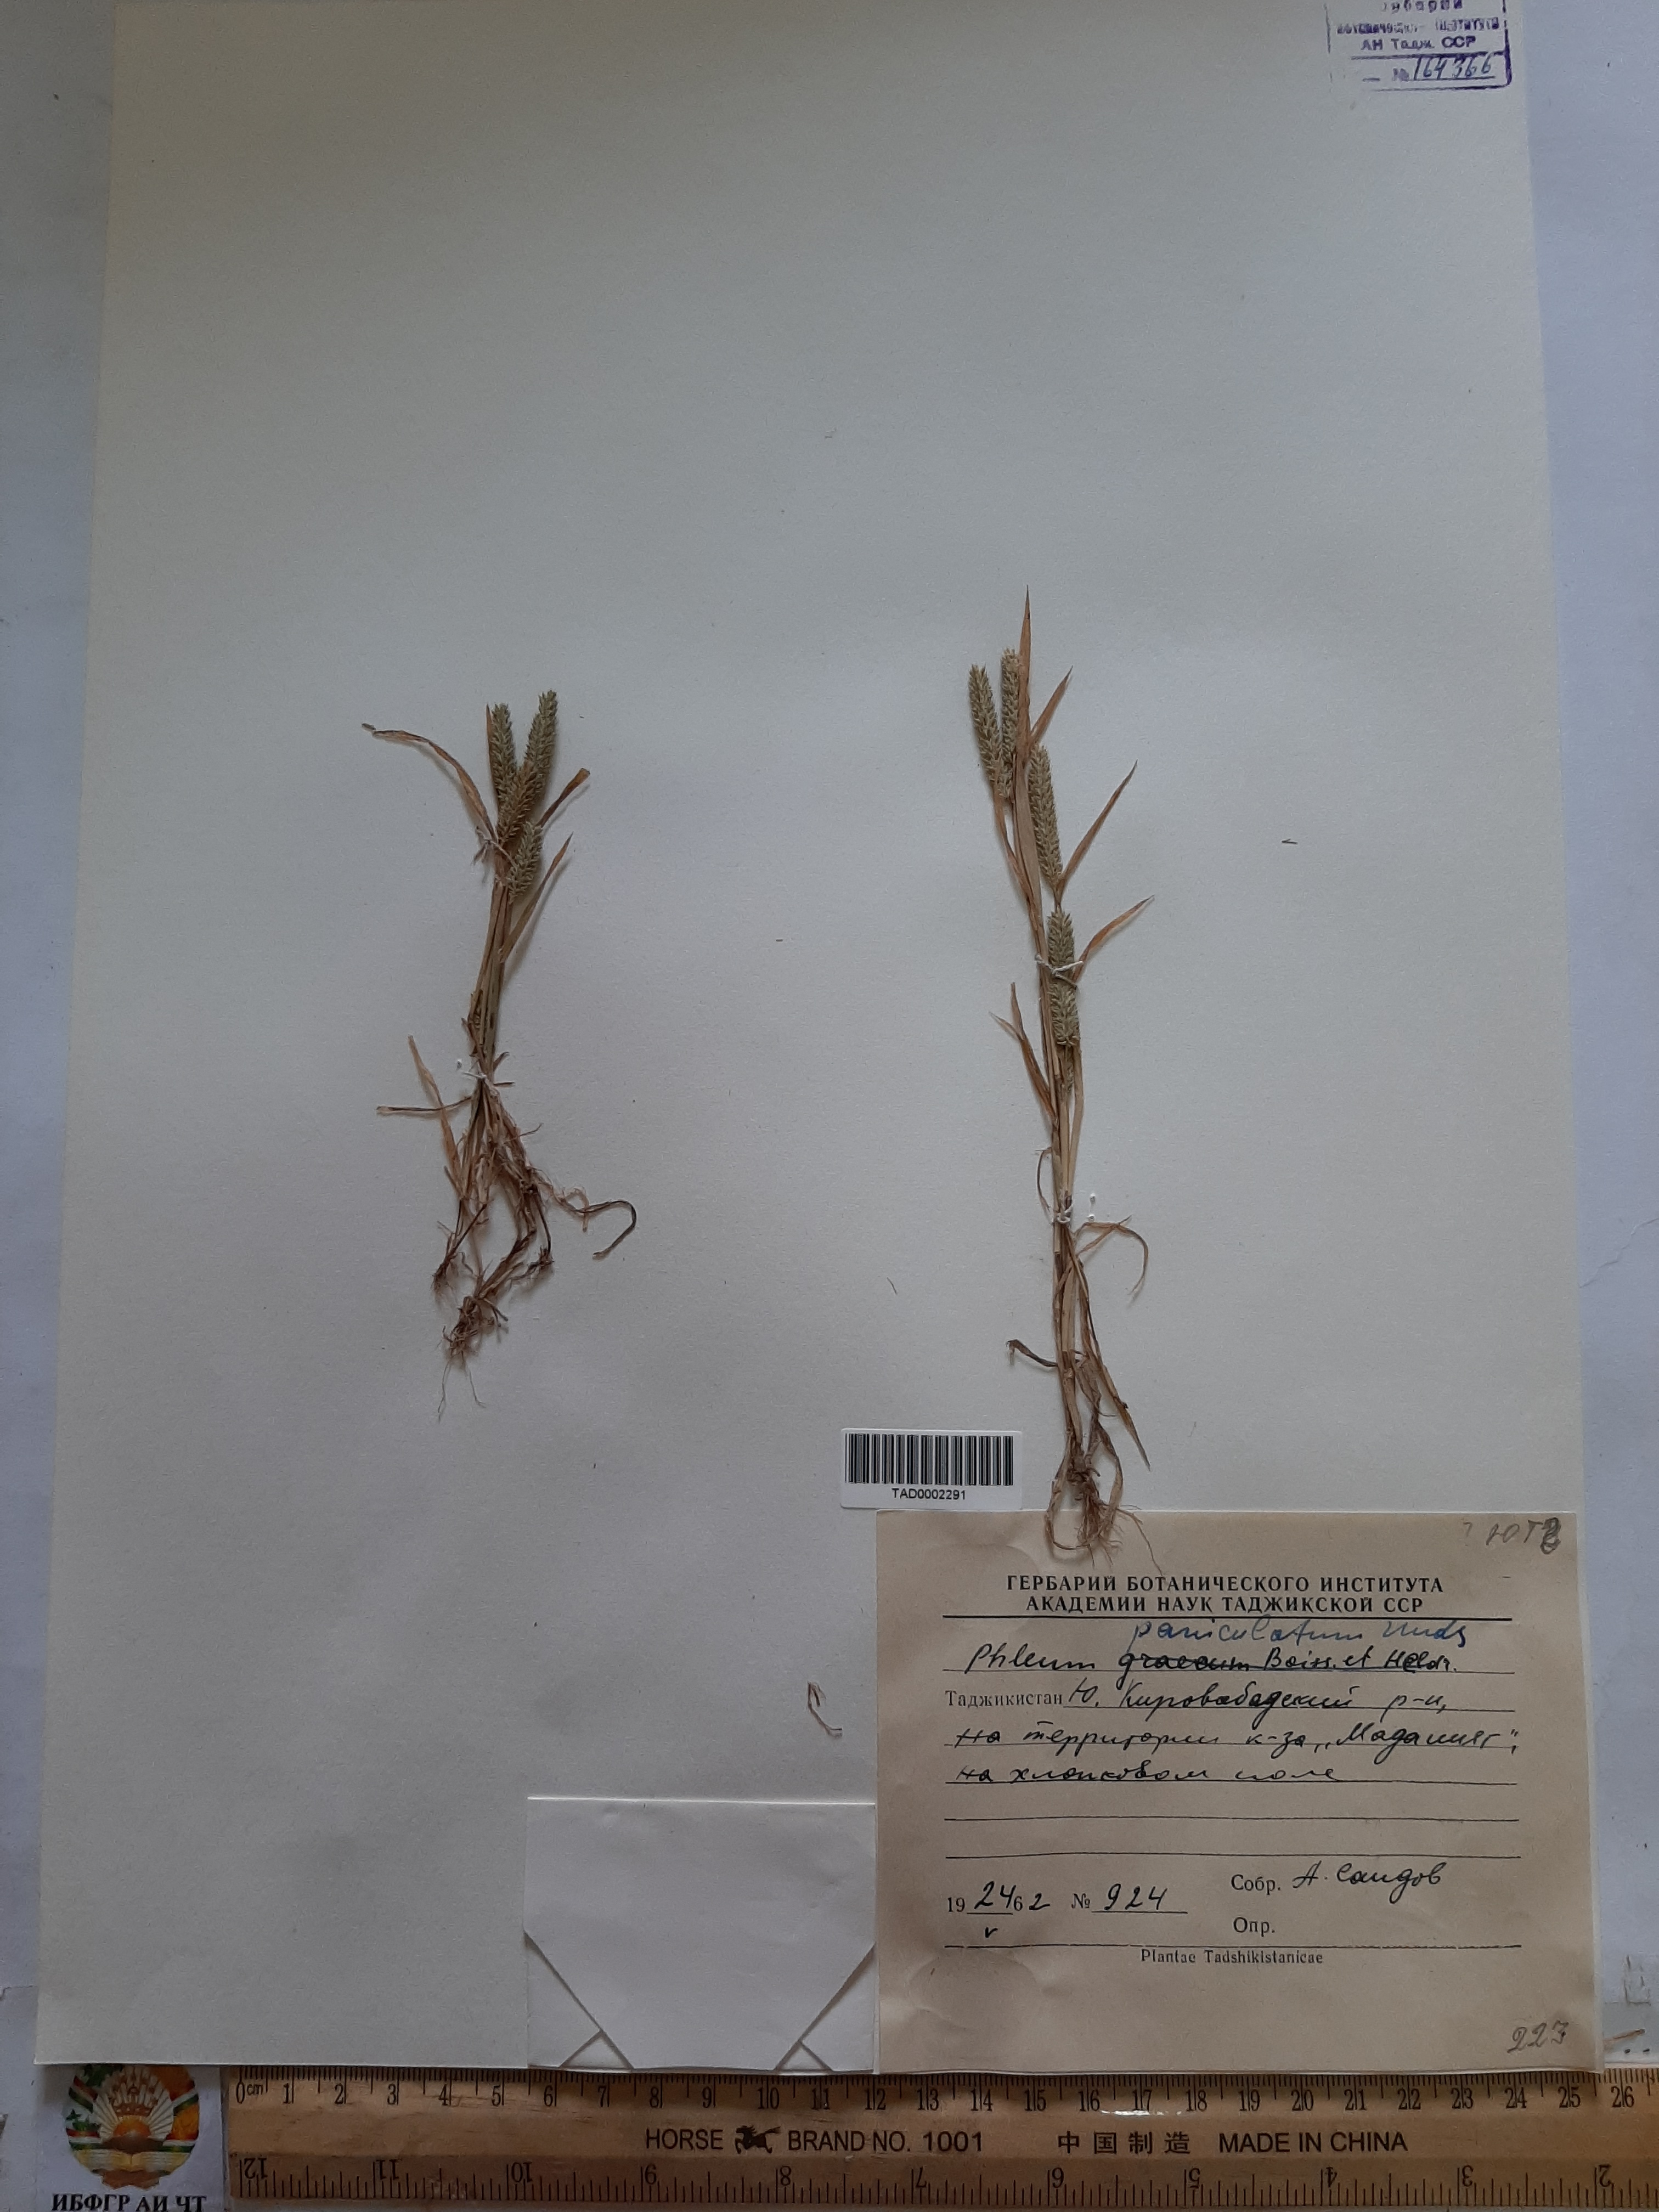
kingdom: Plantae
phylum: Tracheophyta
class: Liliopsida
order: Poales
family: Poaceae
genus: Phleum
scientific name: Phleum paniculatum
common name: British timothy
